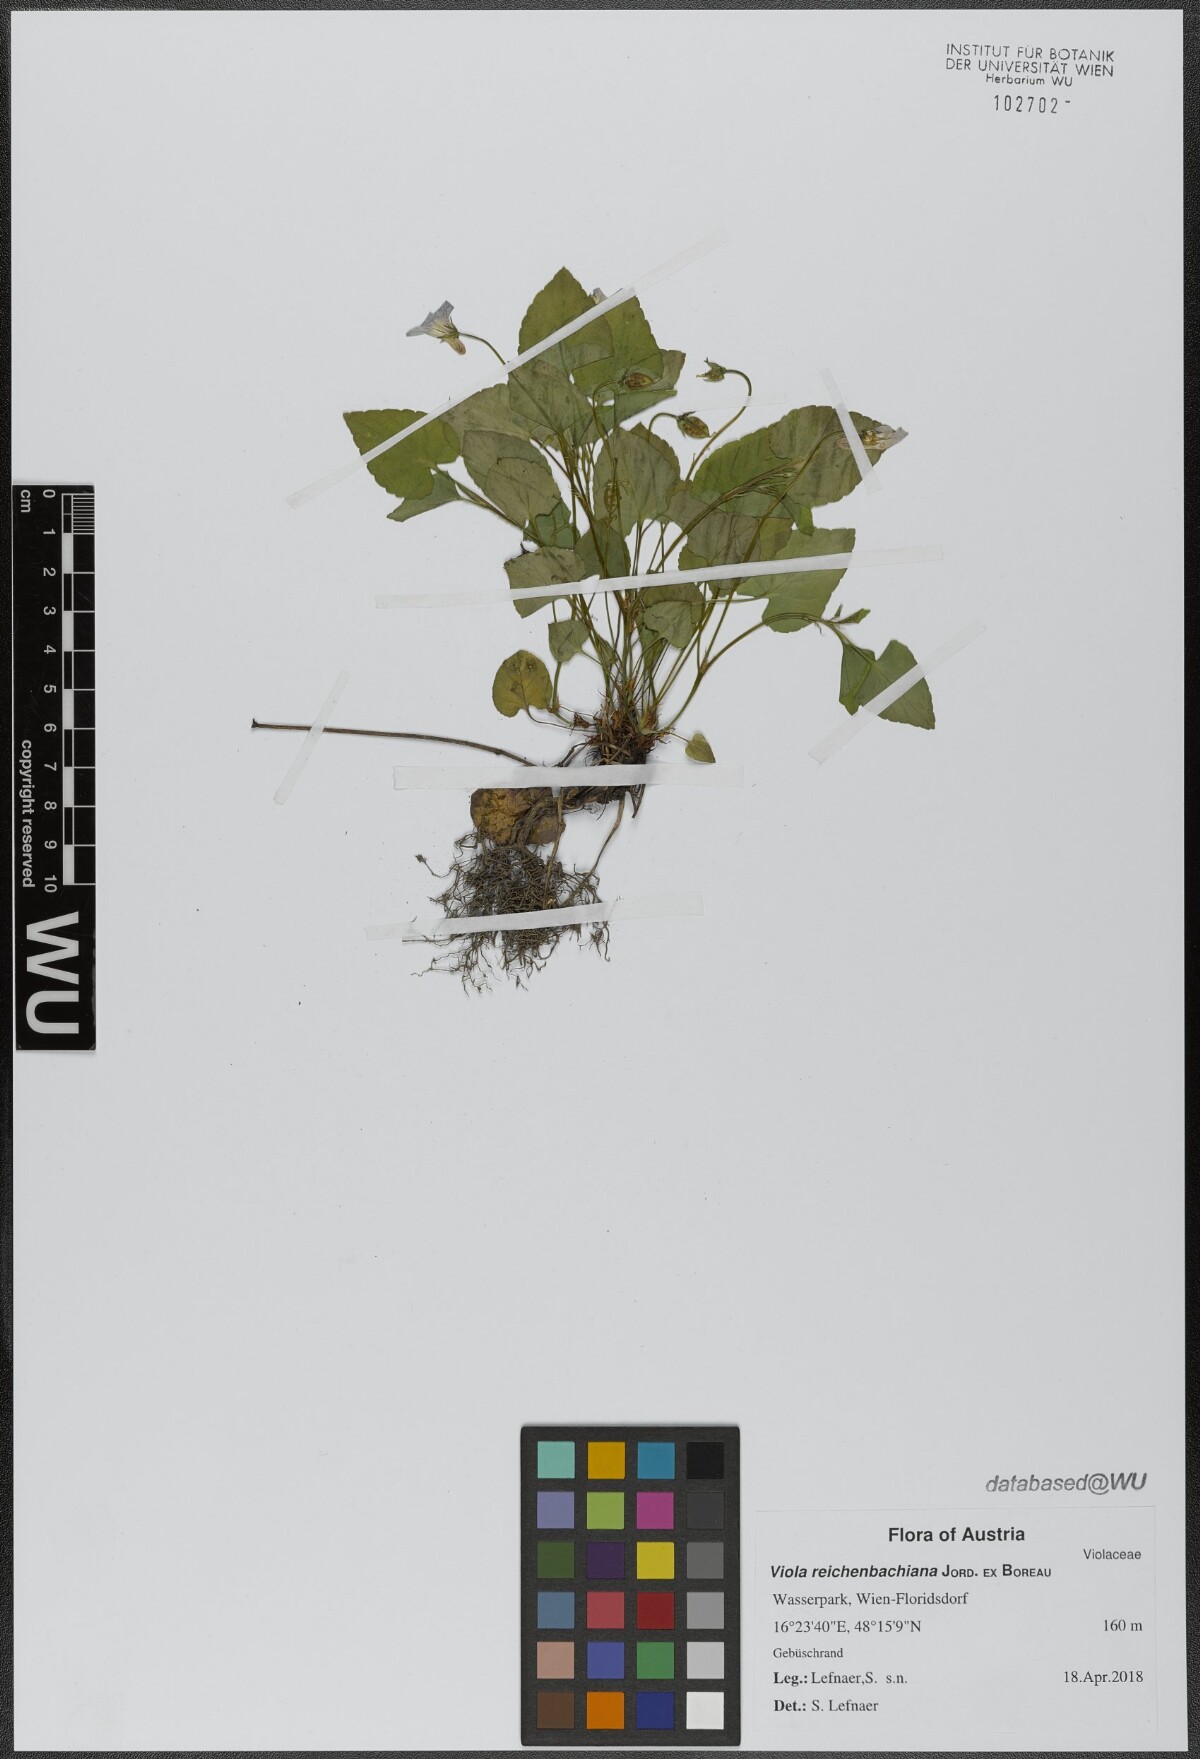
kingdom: Plantae
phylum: Tracheophyta
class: Magnoliopsida
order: Malpighiales
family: Violaceae
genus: Viola
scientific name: Viola reichenbachiana
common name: Early dog-violet
